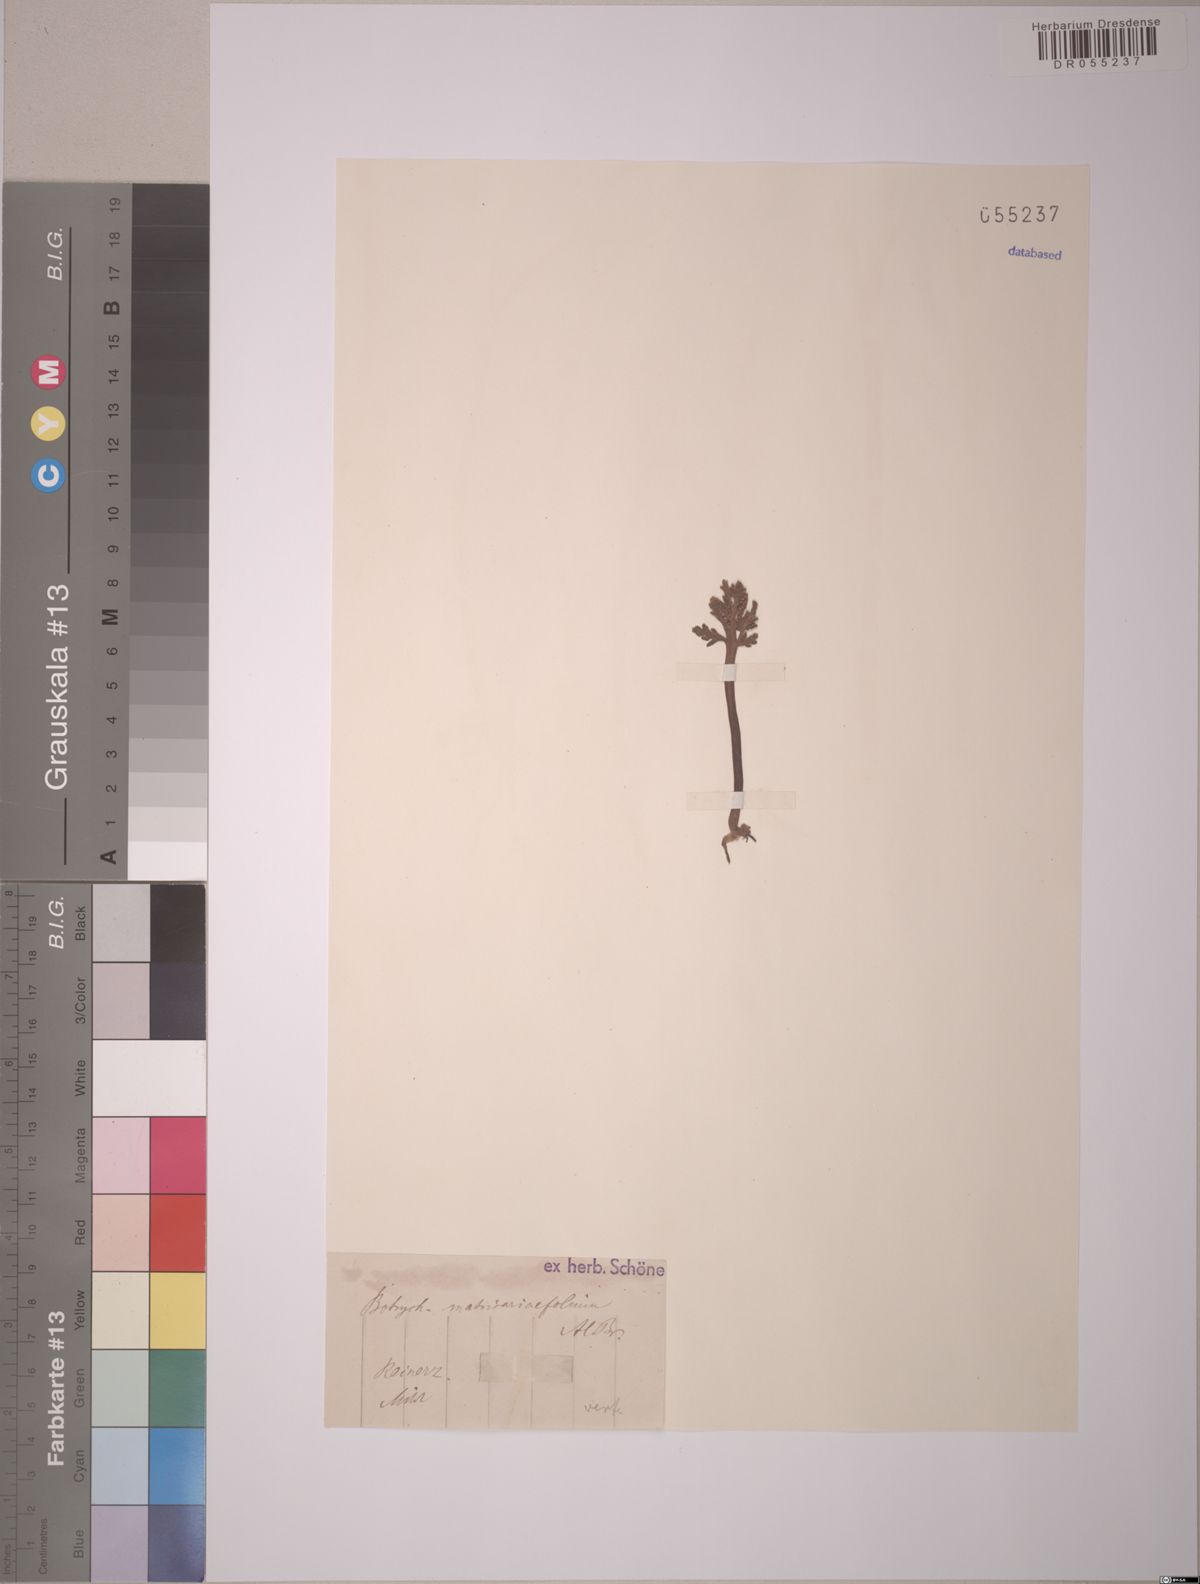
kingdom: Plantae
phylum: Tracheophyta
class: Polypodiopsida
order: Ophioglossales
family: Ophioglossaceae
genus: Botrychium
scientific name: Botrychium matricariifolium
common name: Branched moonwort
